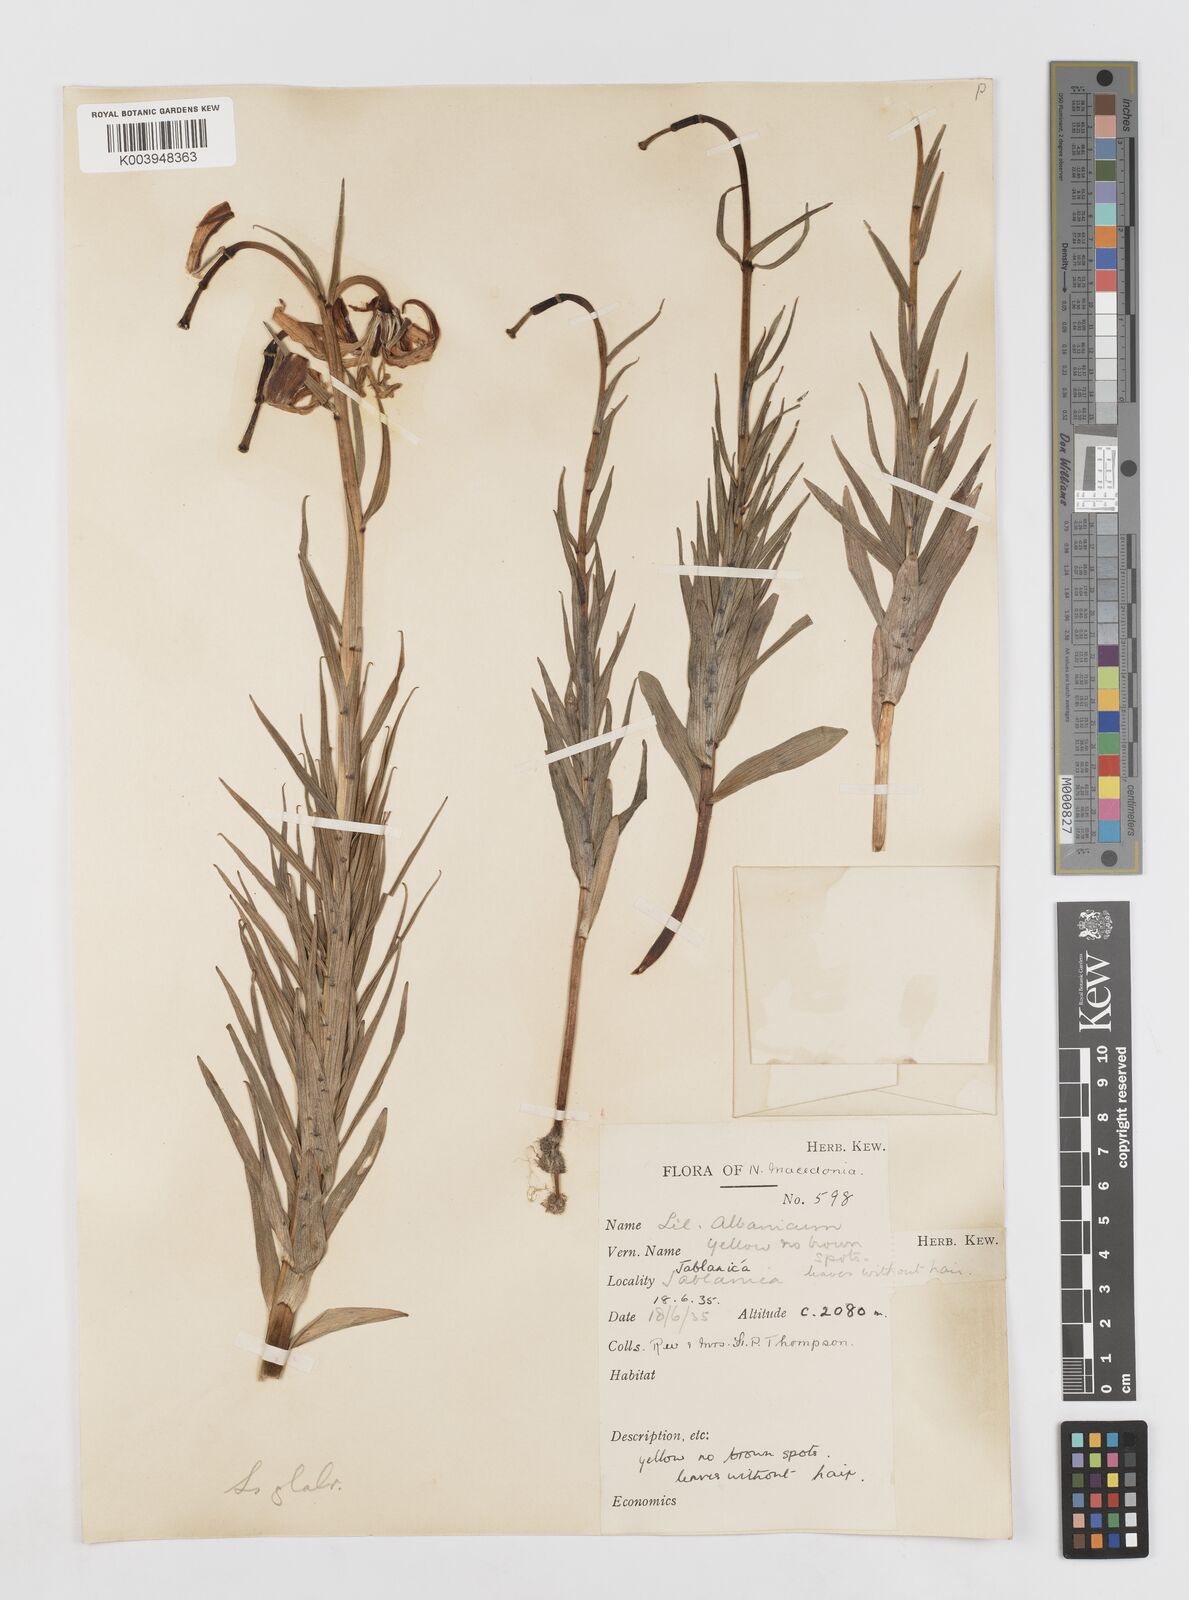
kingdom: Plantae
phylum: Tracheophyta
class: Liliopsida
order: Liliales
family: Liliaceae
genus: Lilium
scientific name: Lilium carniolicum
